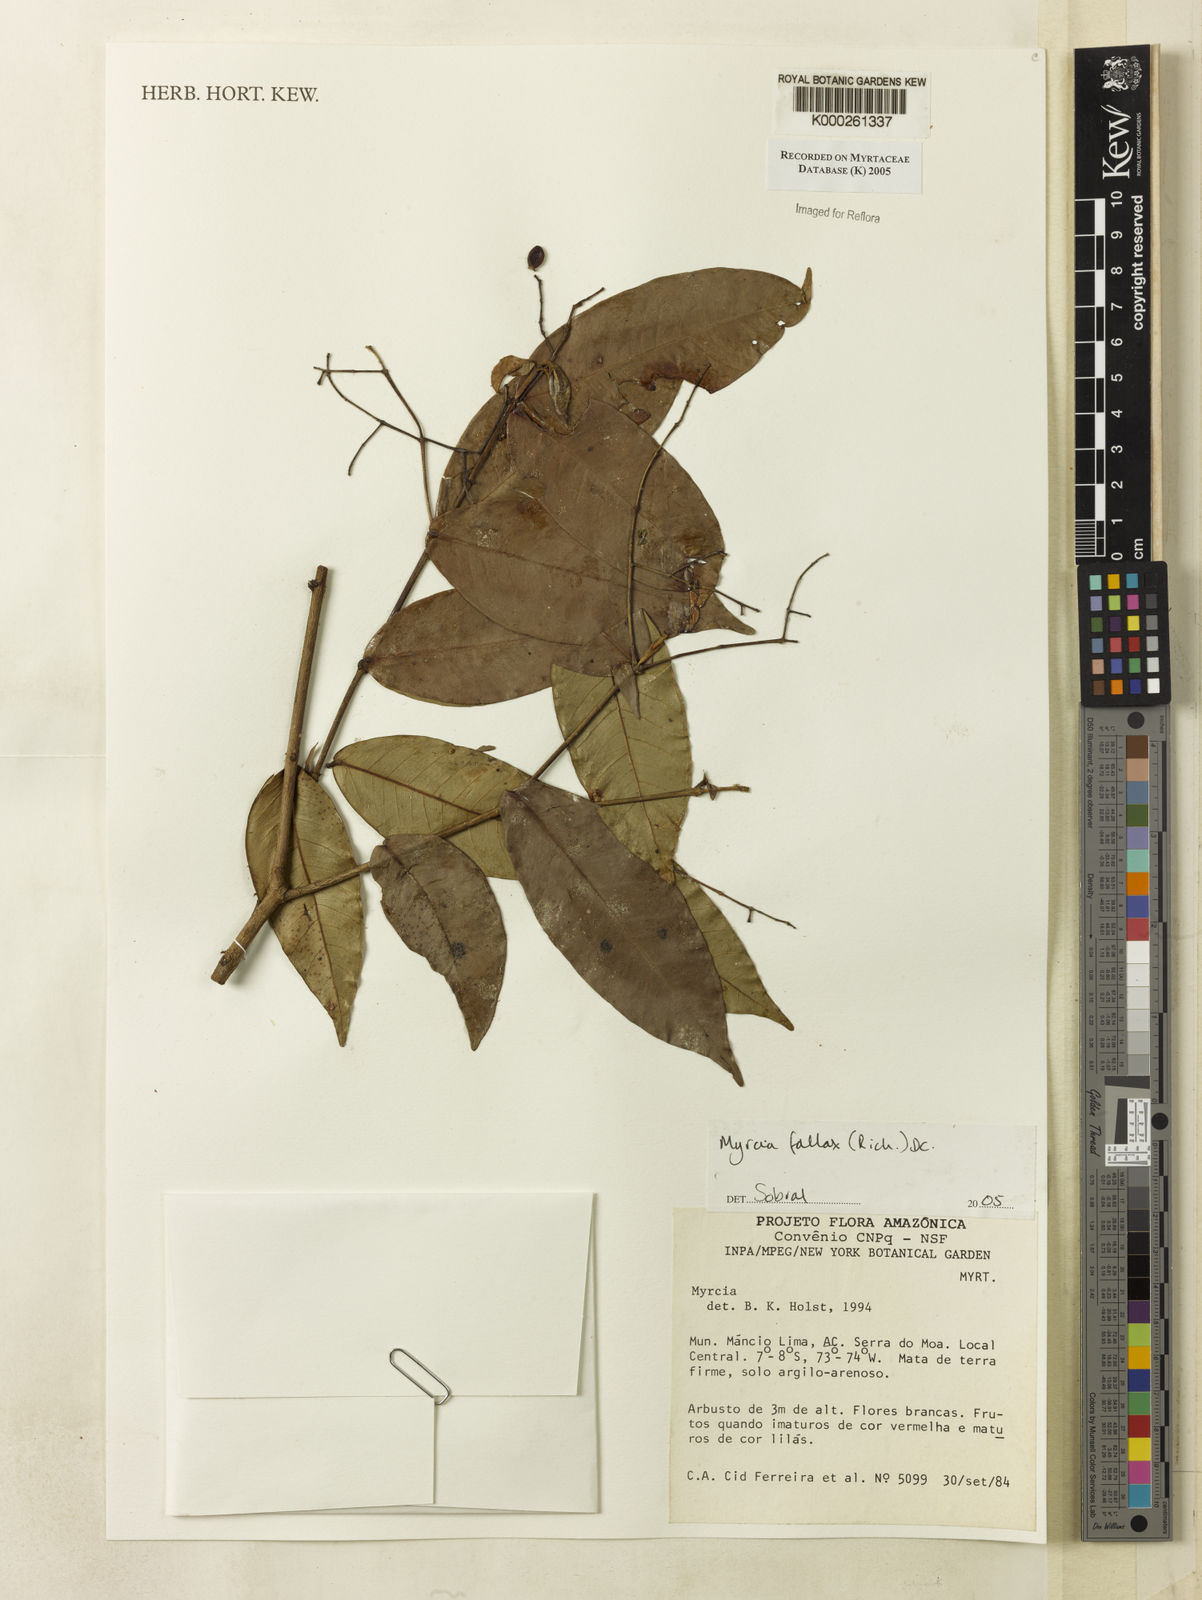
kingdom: Plantae
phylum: Tracheophyta
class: Magnoliopsida
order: Myrtales
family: Myrtaceae
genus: Myrcia
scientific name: Myrcia splendens
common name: Surinam cherry
